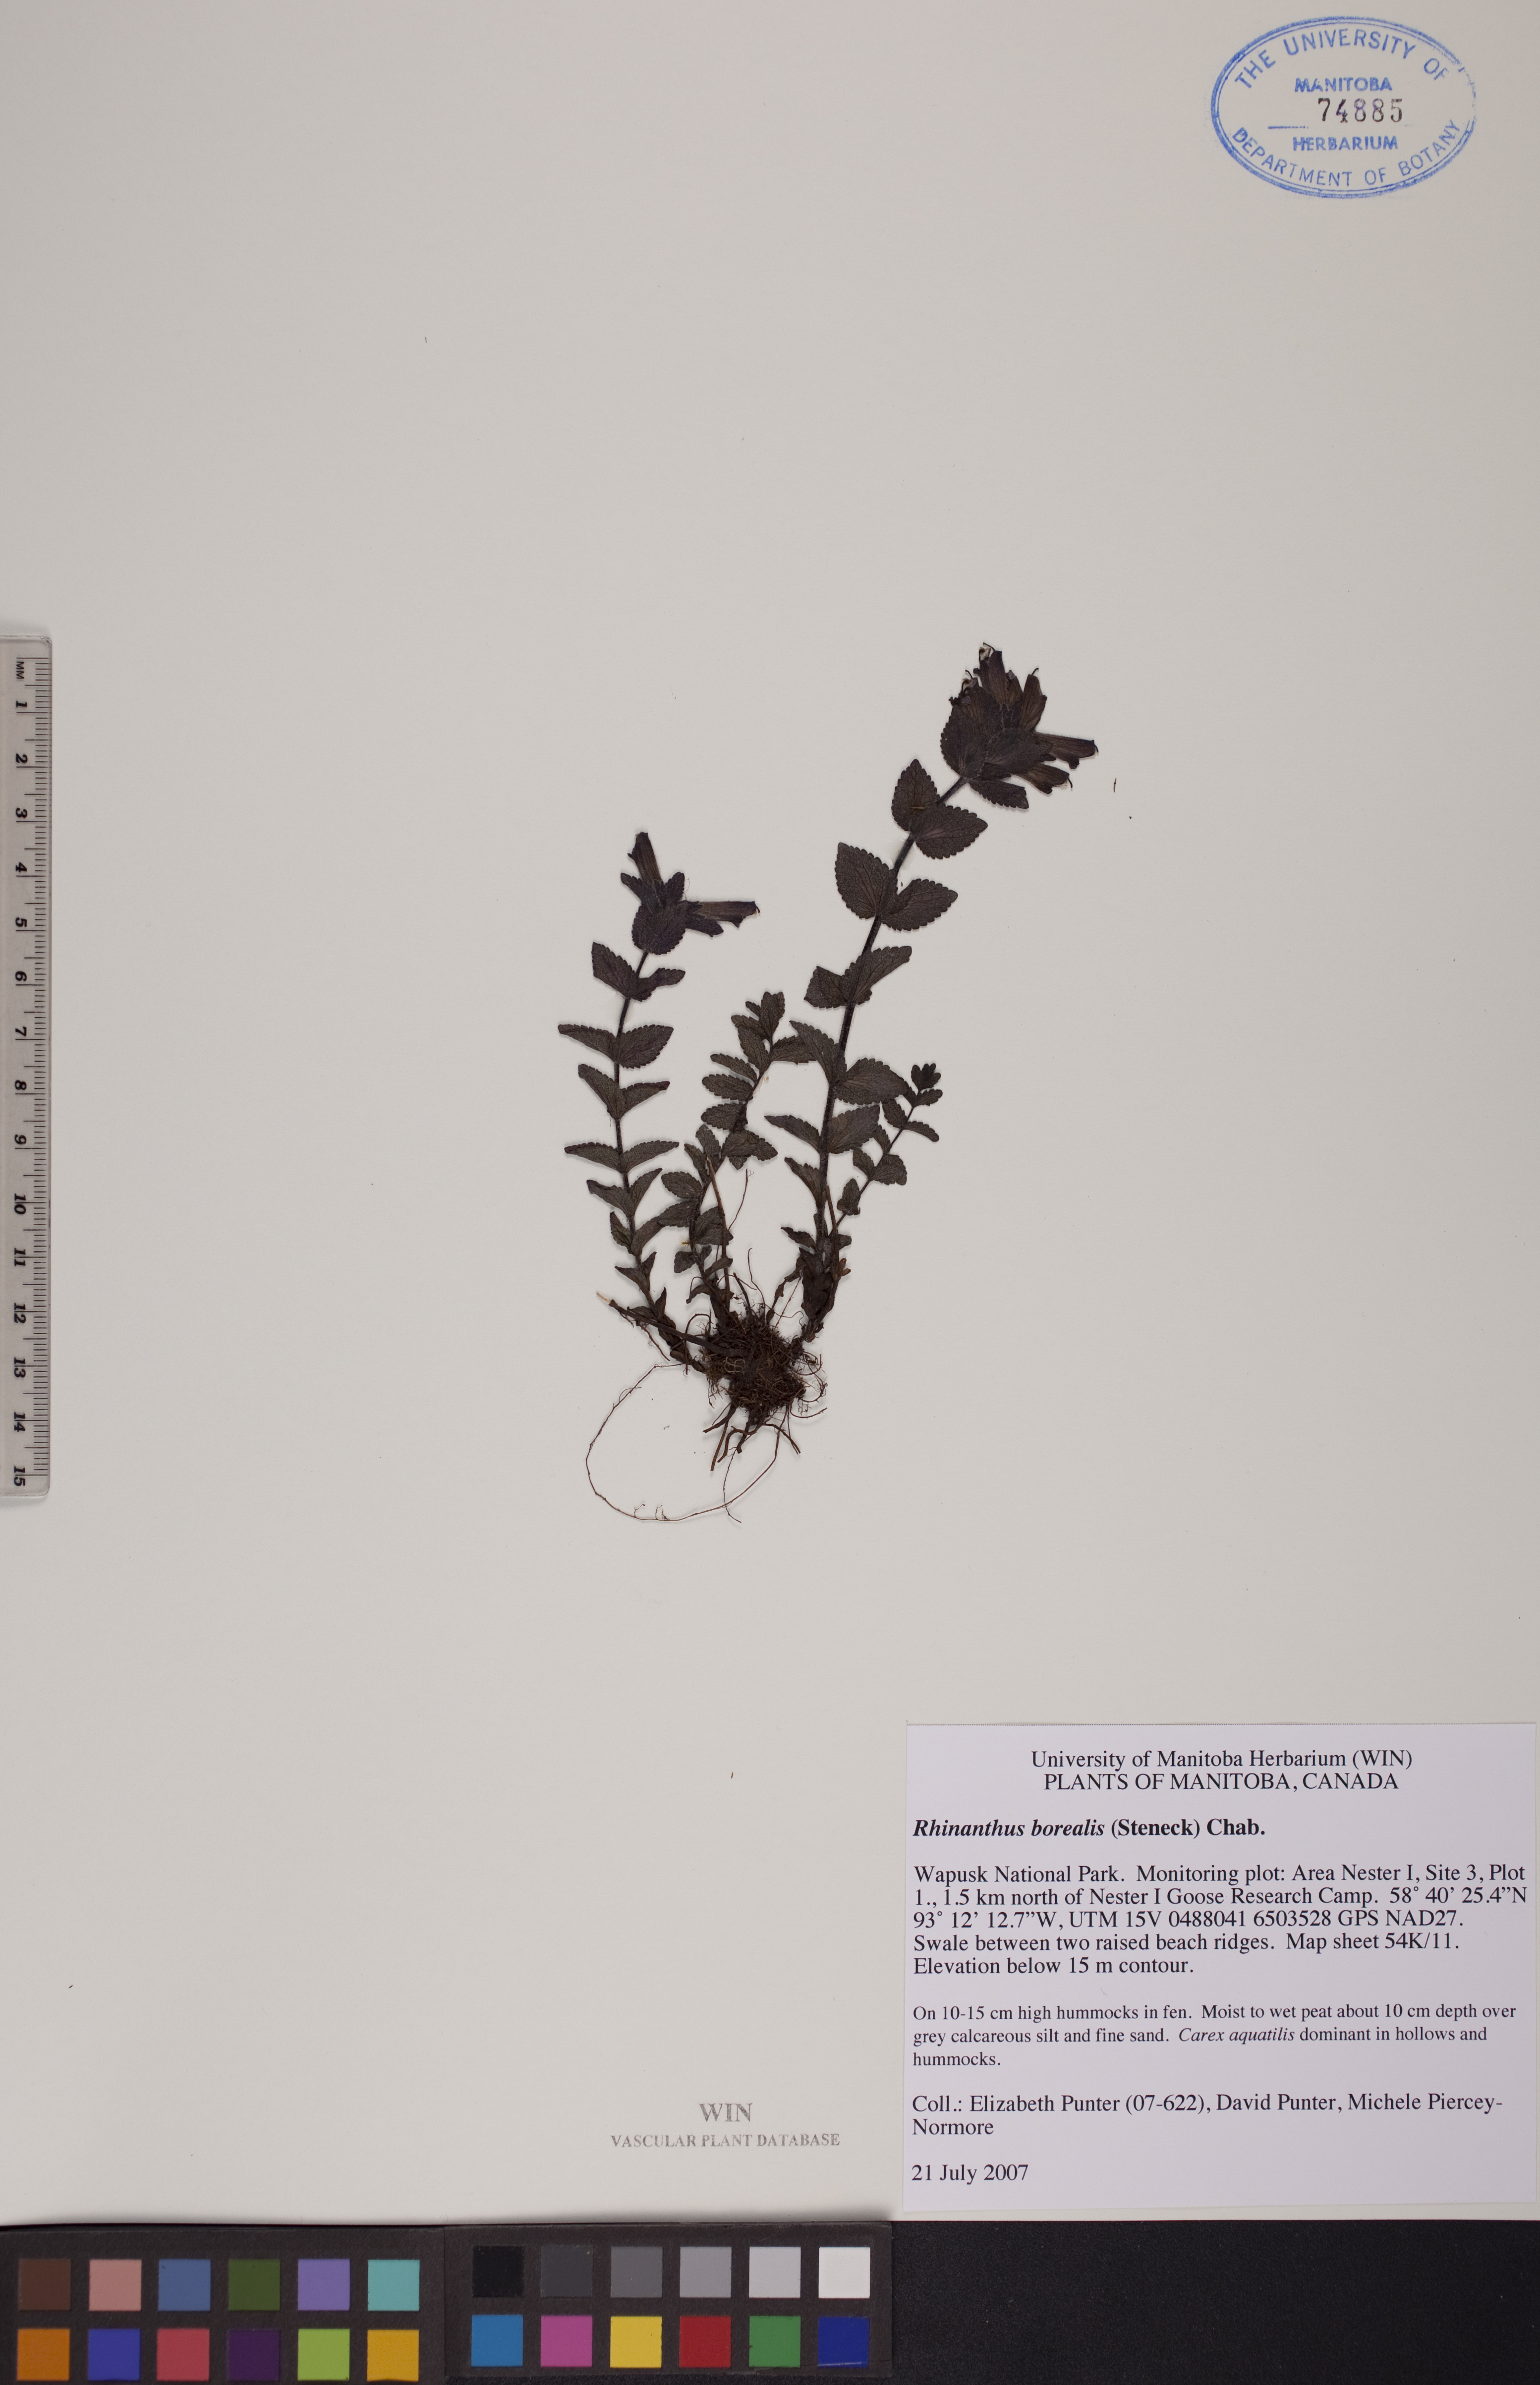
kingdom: Plantae
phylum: Tracheophyta
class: Magnoliopsida
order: Lamiales
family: Orobanchaceae
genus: Rhinanthus
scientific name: Rhinanthus groenlandicus
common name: Little yellow rattle
